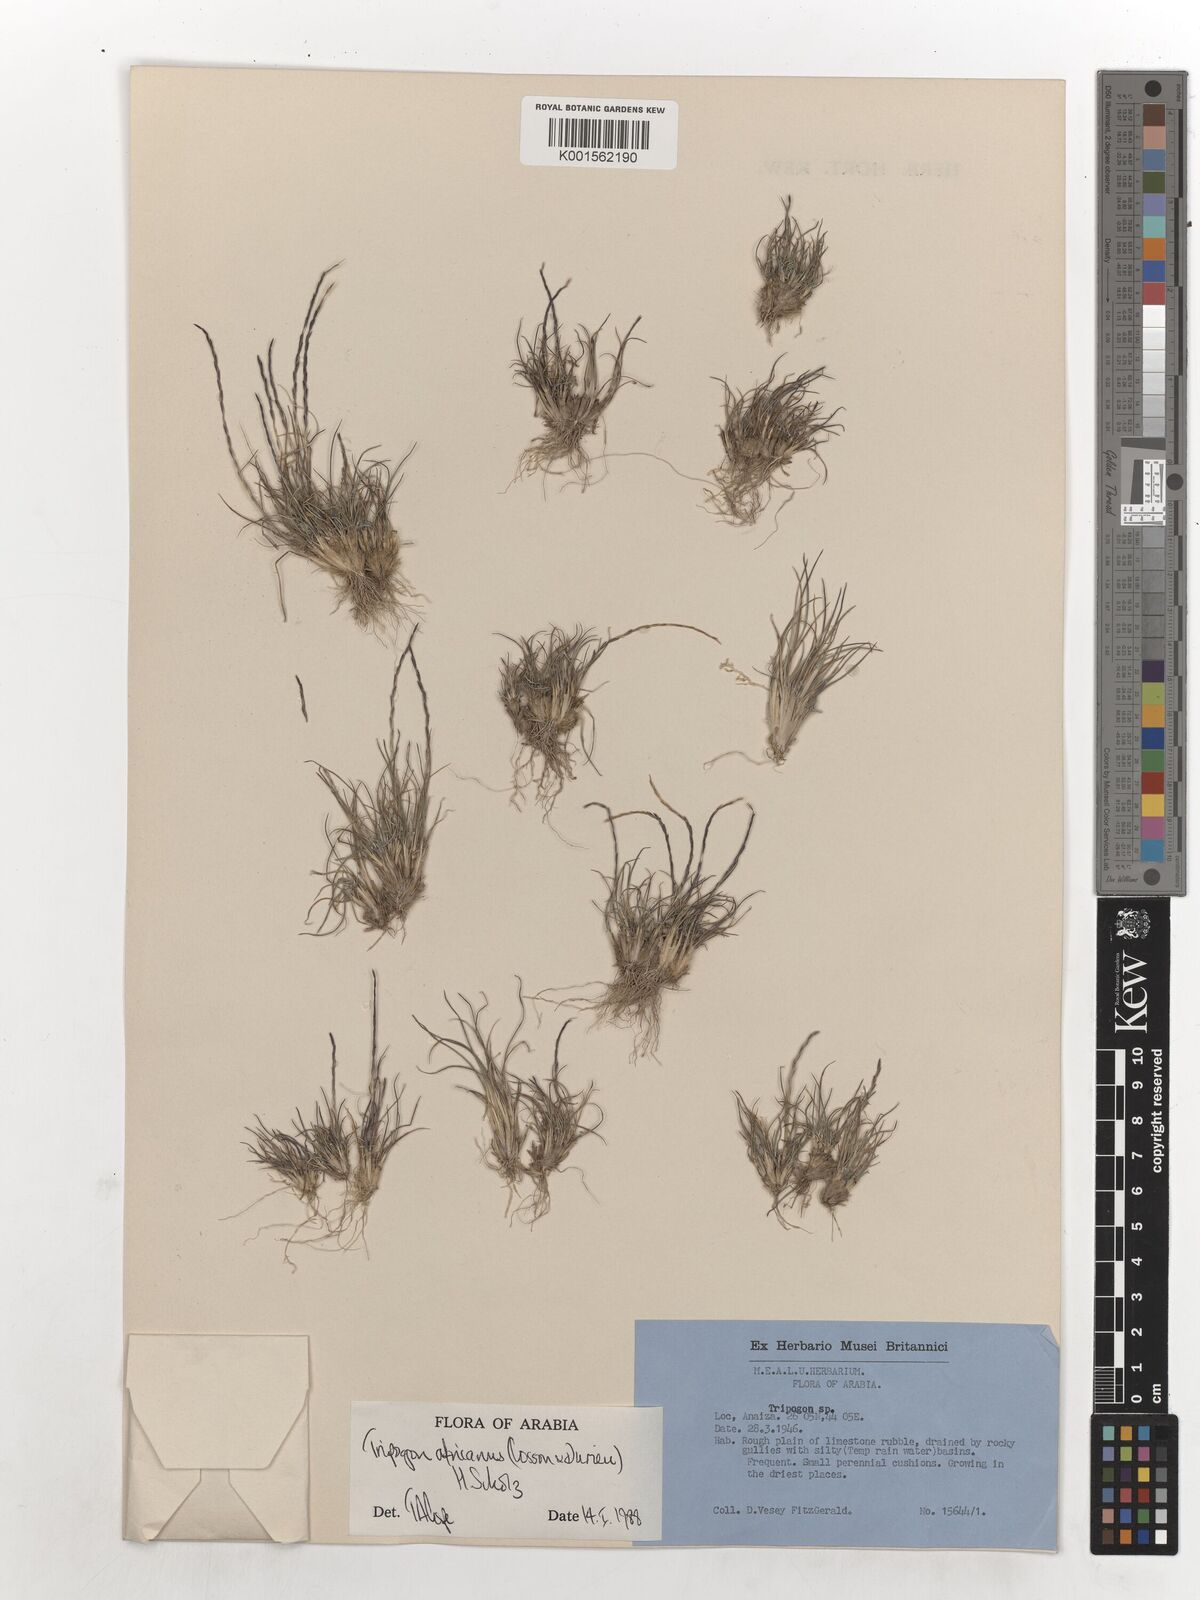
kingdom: Plantae
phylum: Tracheophyta
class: Liliopsida
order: Poales
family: Poaceae
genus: Tripogon
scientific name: Tripogon africanus
